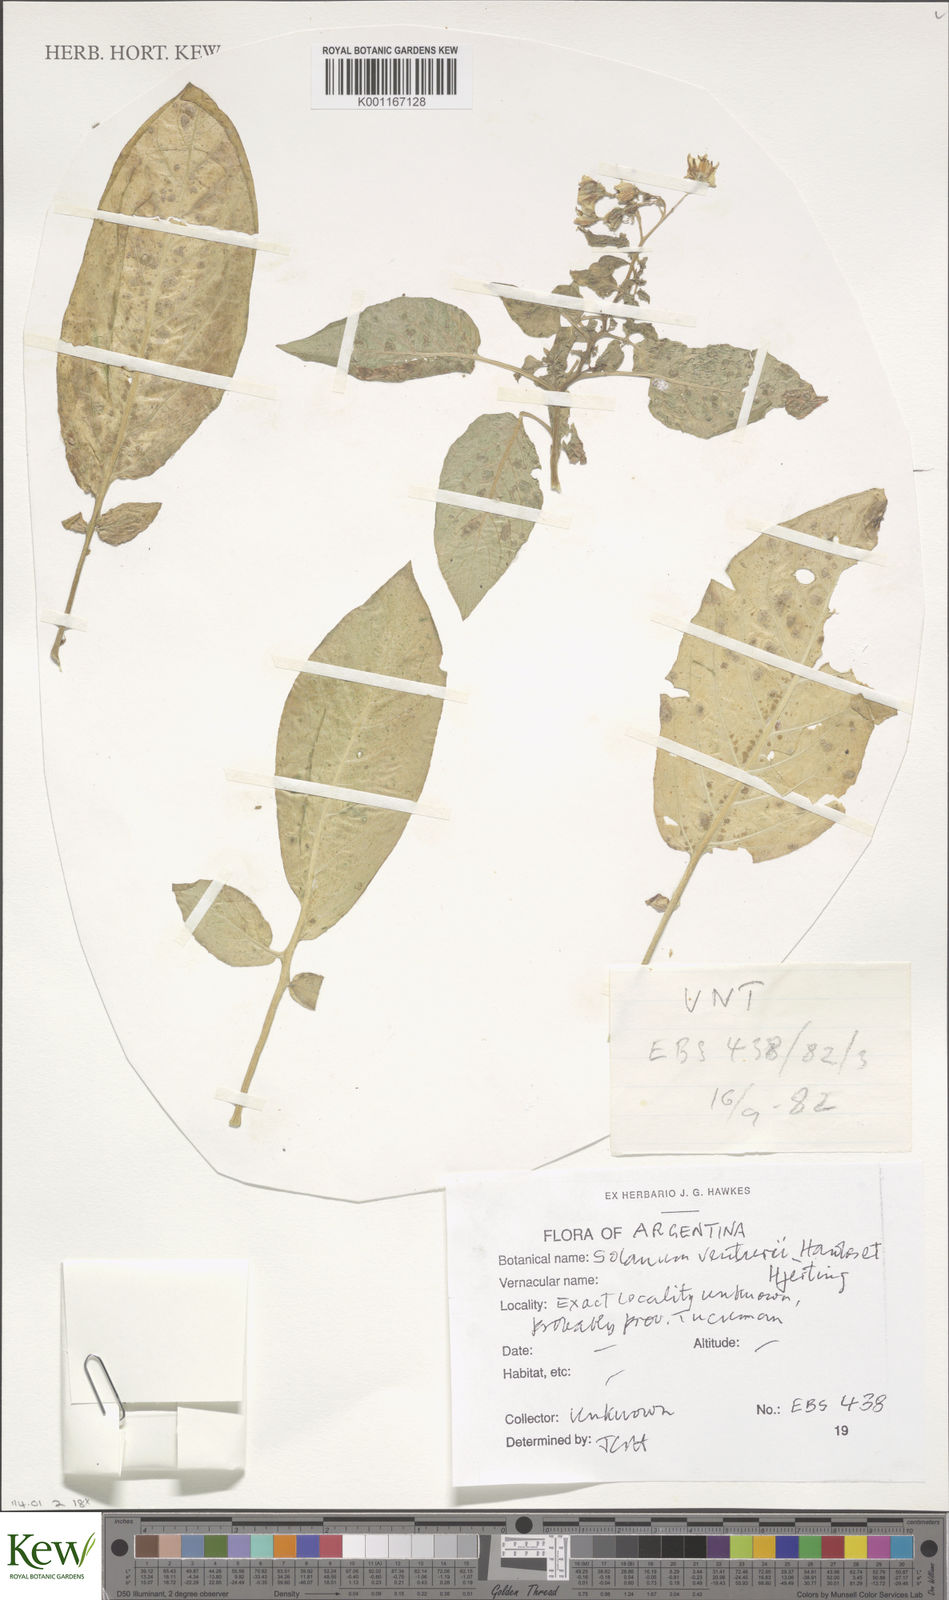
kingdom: Plantae
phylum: Tracheophyta
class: Magnoliopsida
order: Solanales
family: Solanaceae
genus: Solanum
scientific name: Solanum venturii
